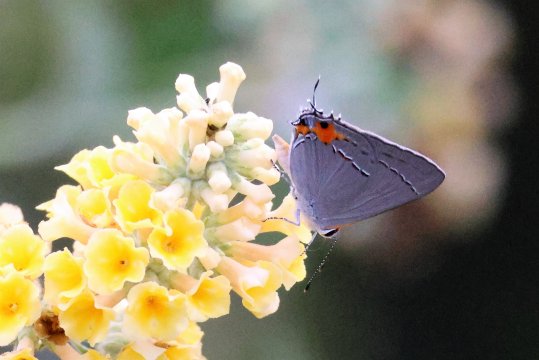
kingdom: Animalia
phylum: Arthropoda
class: Insecta
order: Lepidoptera
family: Lycaenidae
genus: Strymon
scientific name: Strymon melinus
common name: Gray Hairstreak
